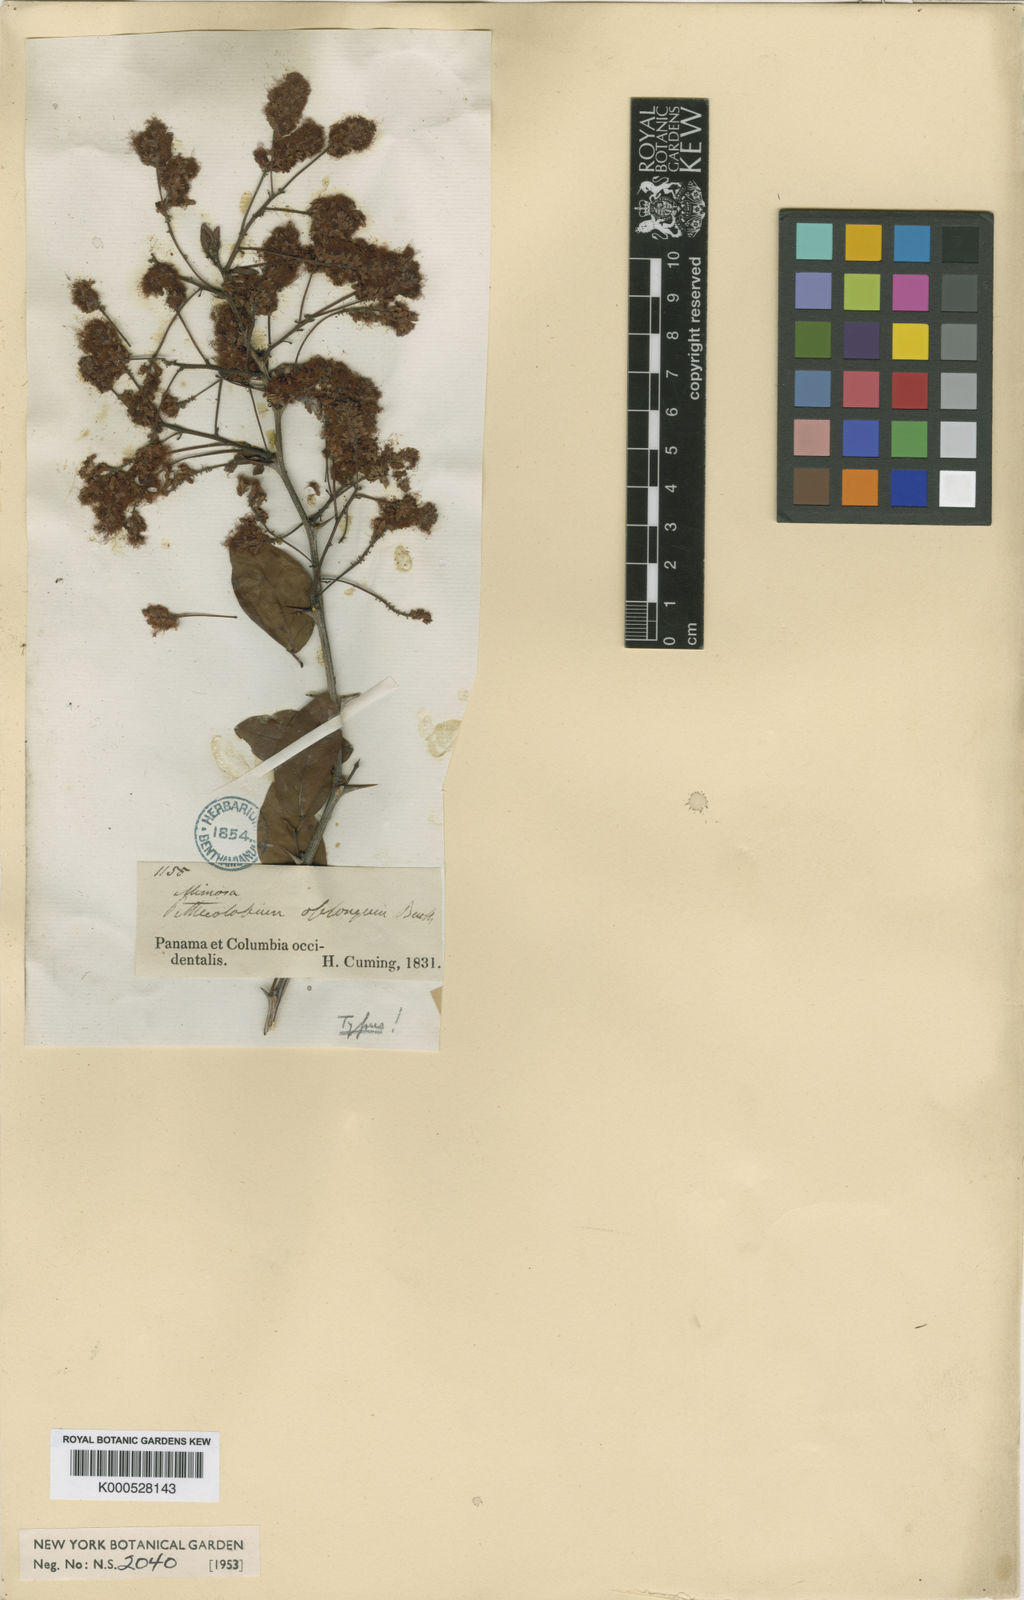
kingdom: Plantae
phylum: Tracheophyta
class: Magnoliopsida
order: Fabales
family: Fabaceae
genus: Pithecellobium
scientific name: Pithecellobium oblongum
